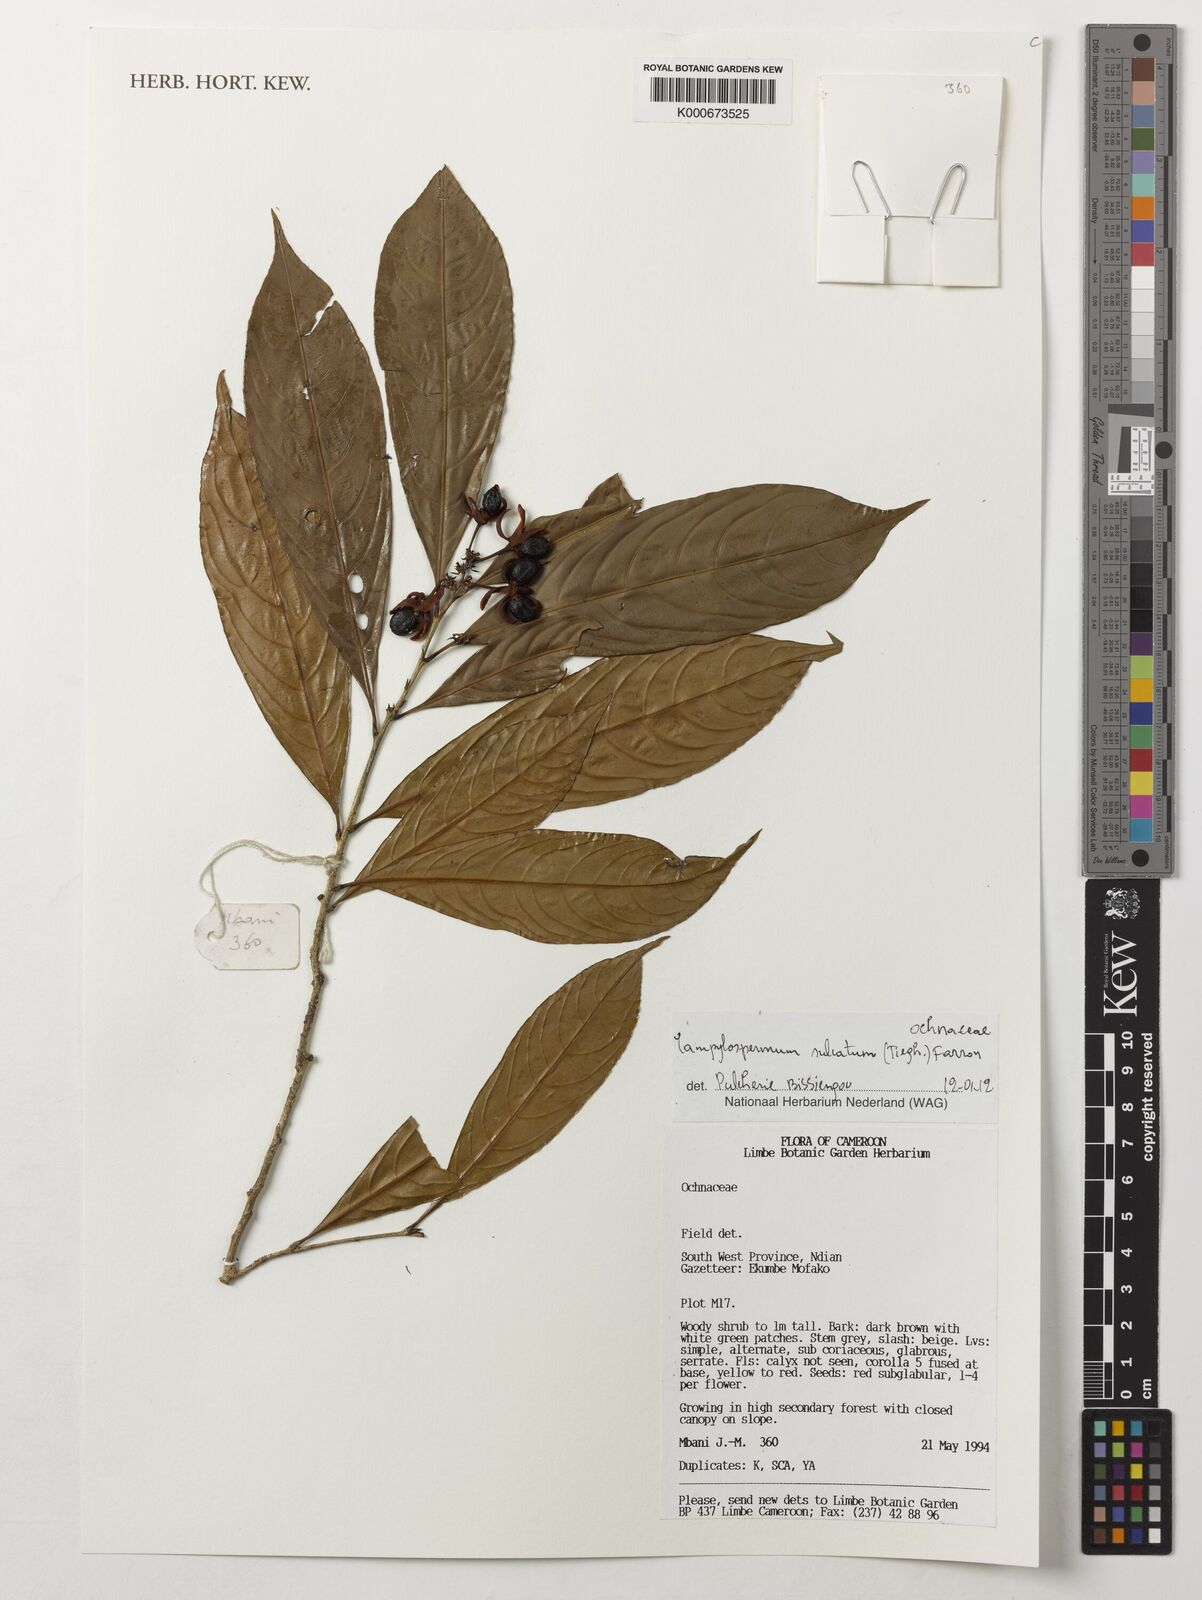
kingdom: Plantae
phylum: Tracheophyta
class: Magnoliopsida
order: Malpighiales
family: Ochnaceae
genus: Campylospermum
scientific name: Campylospermum sulcatum
